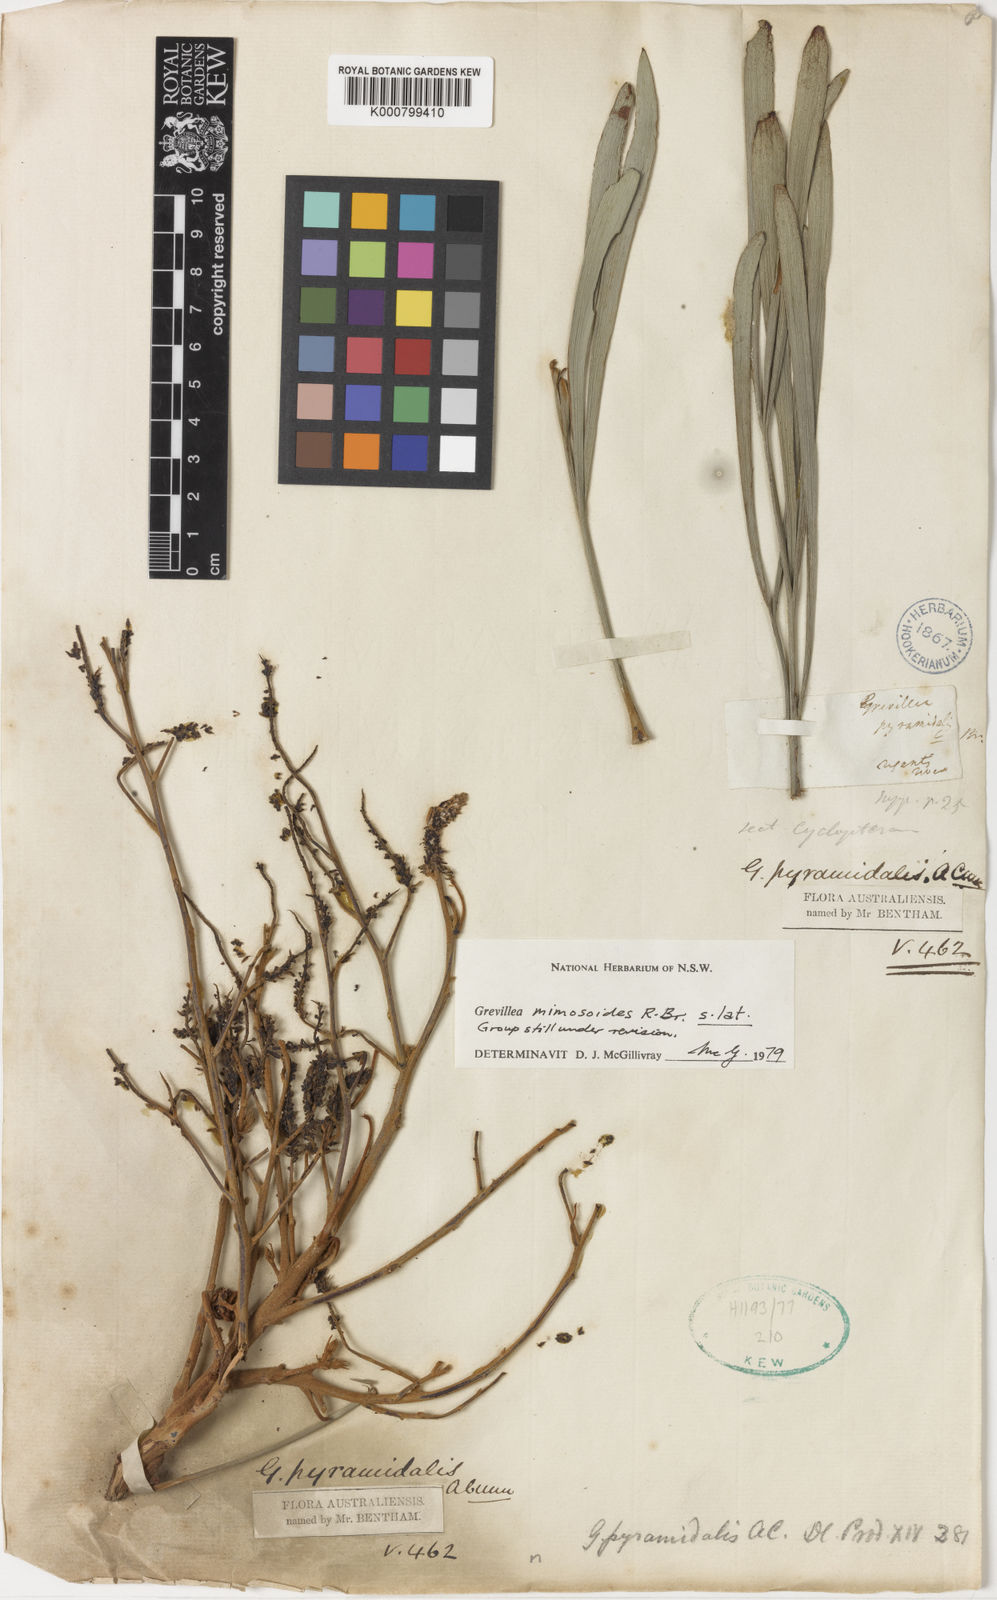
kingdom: Plantae
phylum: Tracheophyta
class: Magnoliopsida
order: Proteales
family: Proteaceae
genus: Grevillea
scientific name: Grevillea pyramidalis
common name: Caustictree
